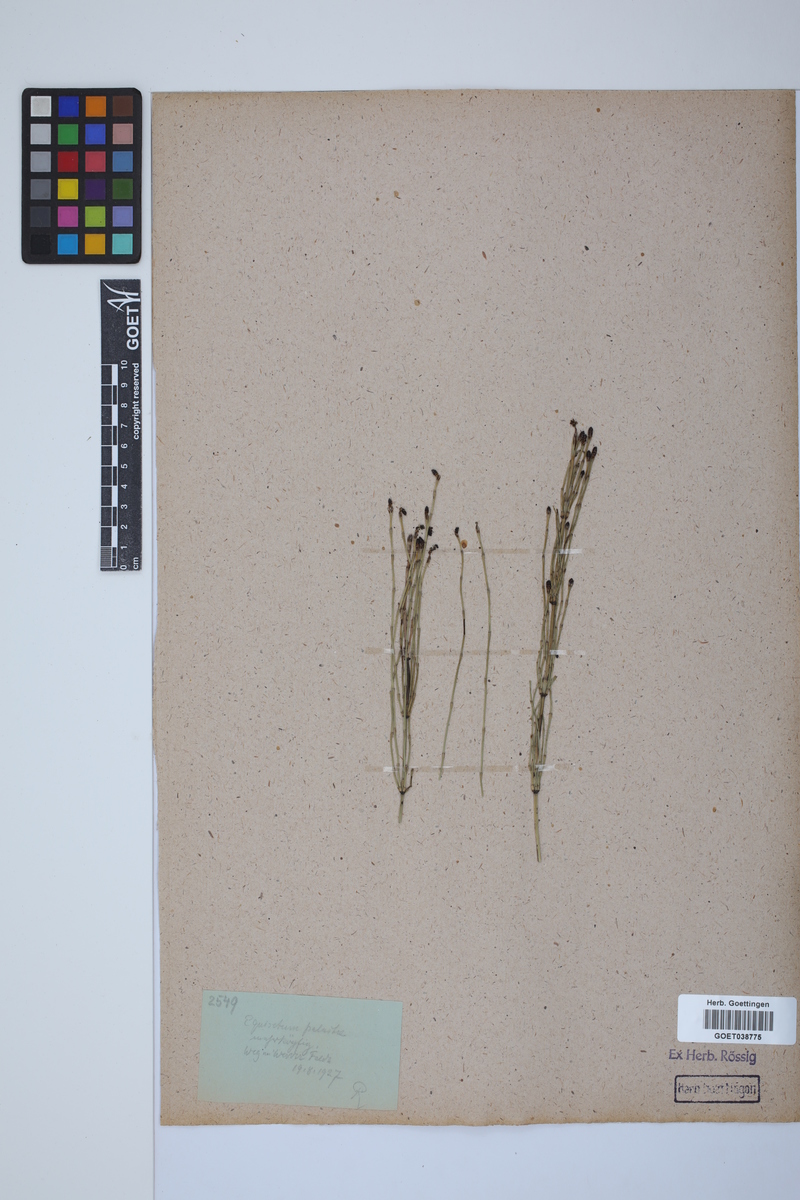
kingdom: Plantae
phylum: Tracheophyta
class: Polypodiopsida
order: Equisetales
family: Equisetaceae
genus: Equisetum
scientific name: Equisetum palustre
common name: Marsh horsetail
